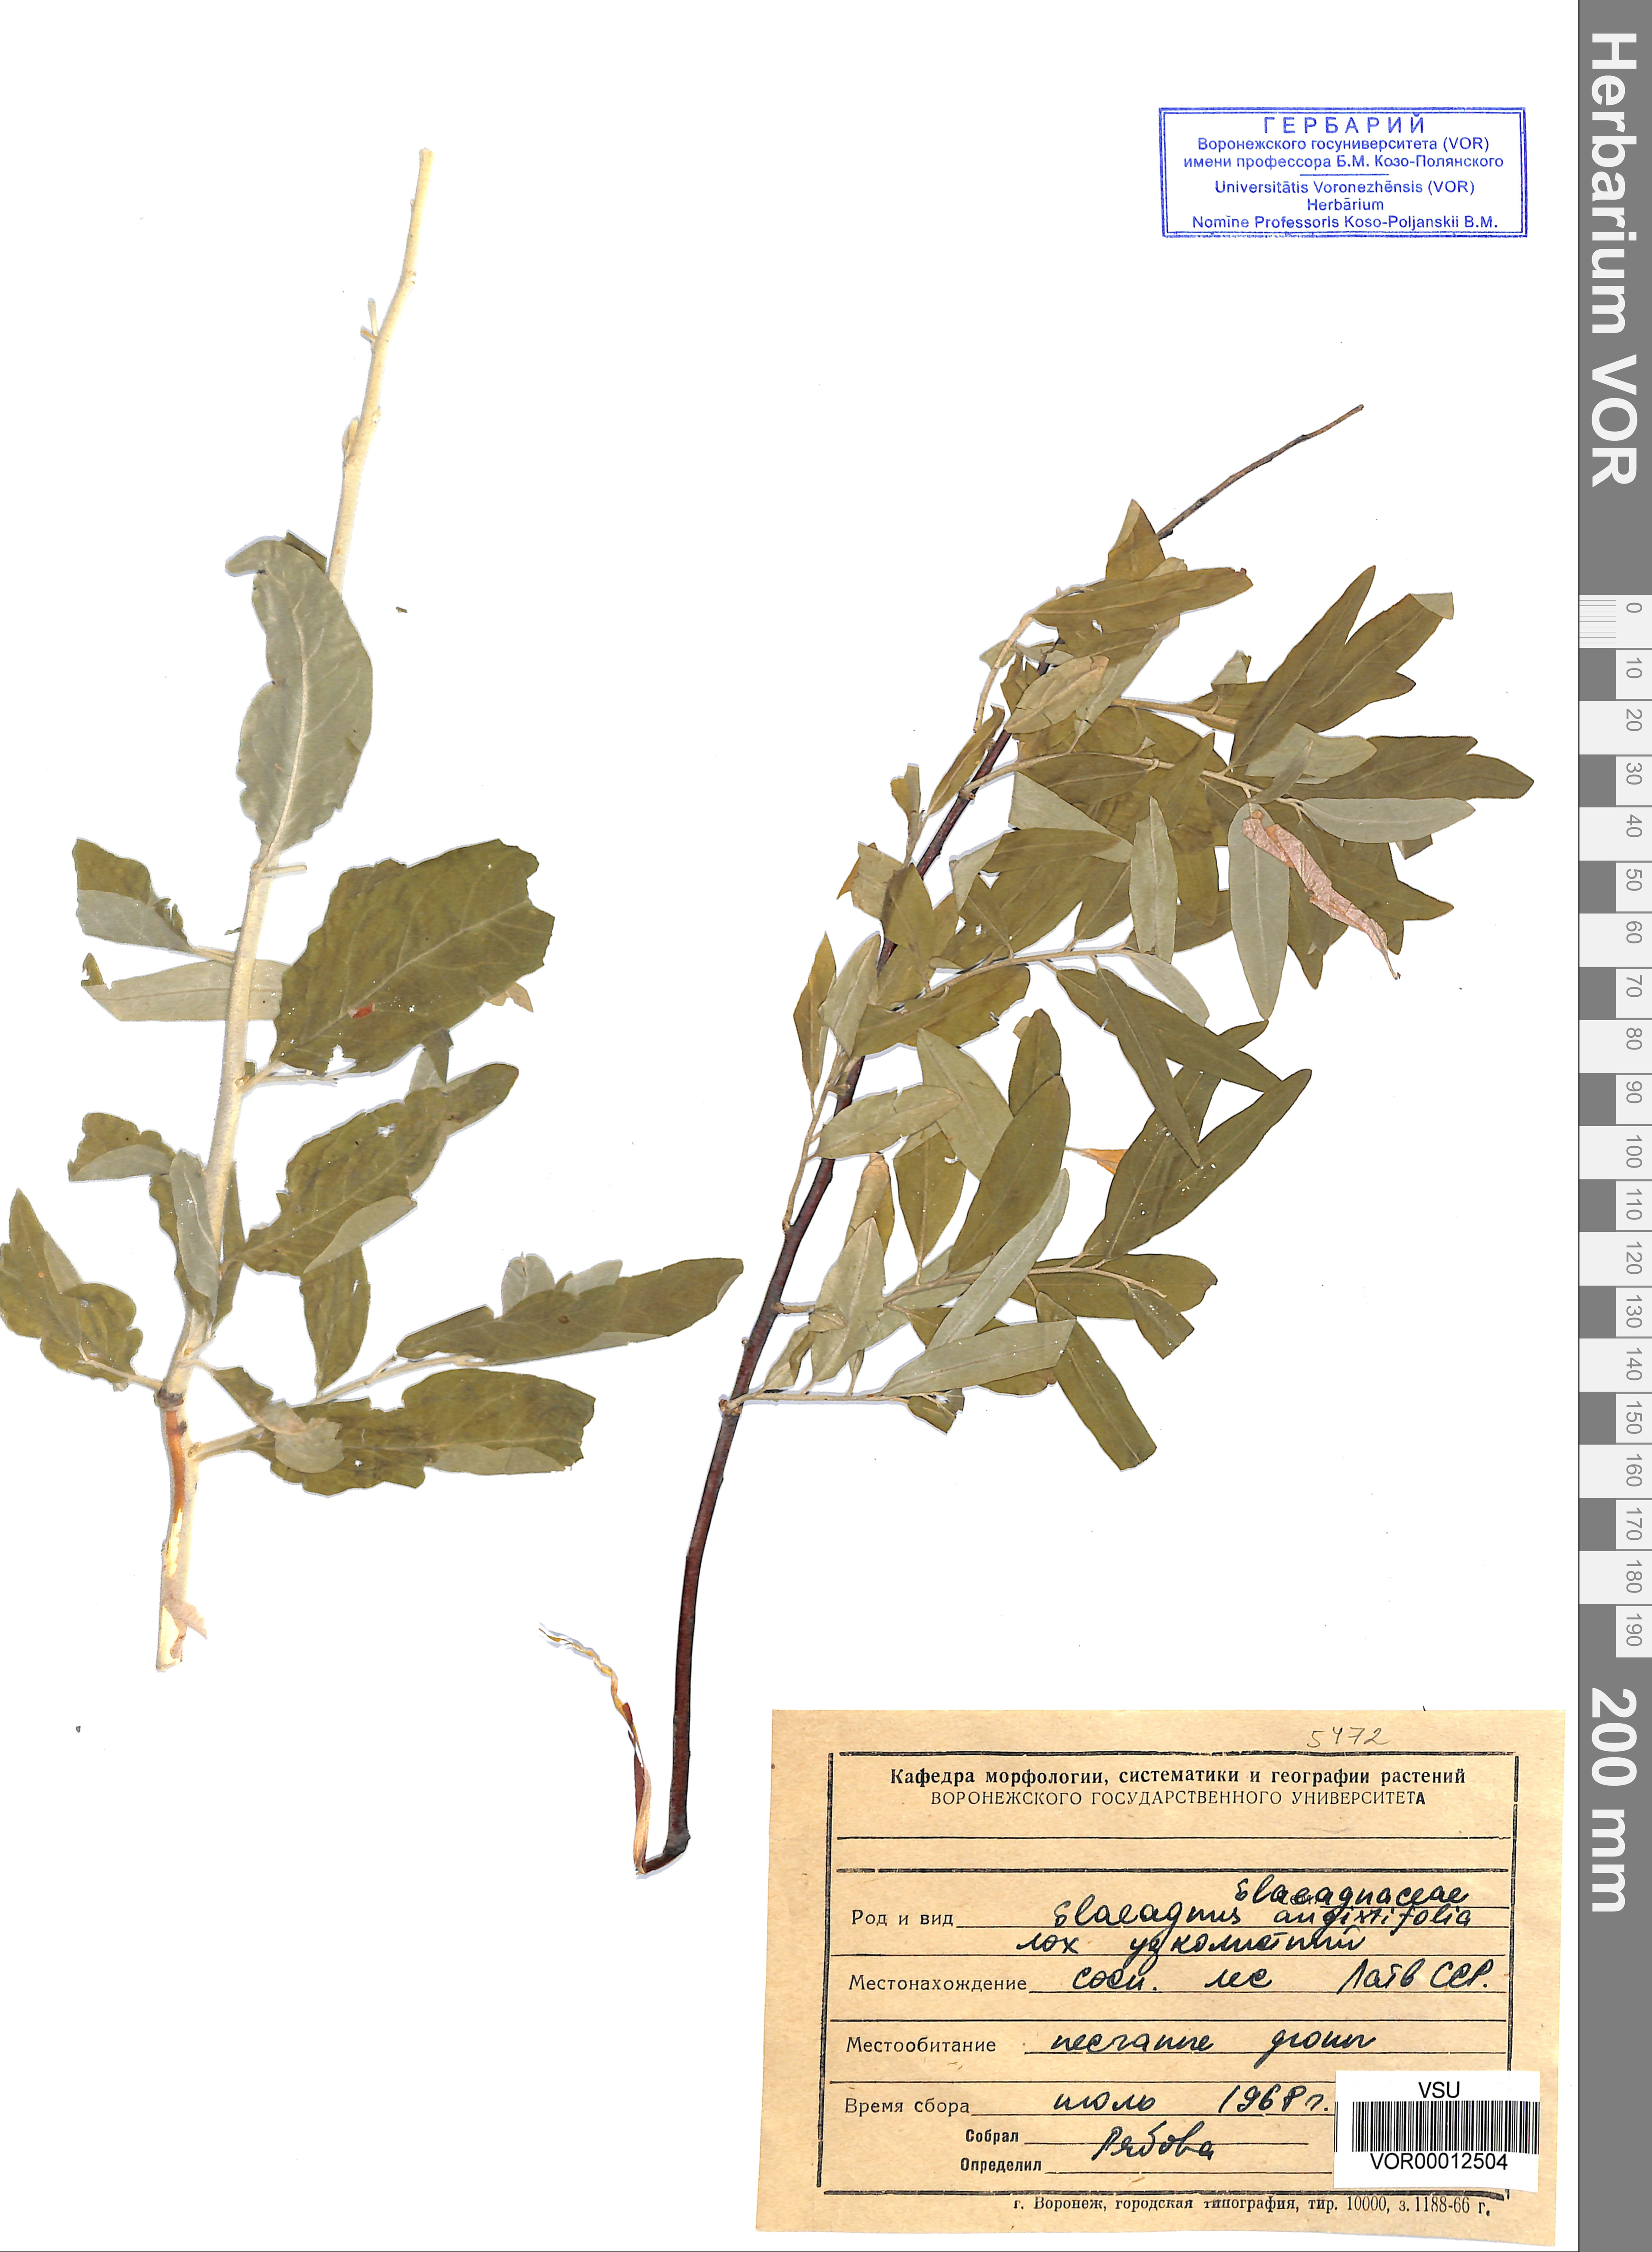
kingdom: Plantae
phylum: Tracheophyta
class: Magnoliopsida
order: Rosales
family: Elaeagnaceae
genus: Elaeagnus
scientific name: Elaeagnus angustifolia
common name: Russian olive
